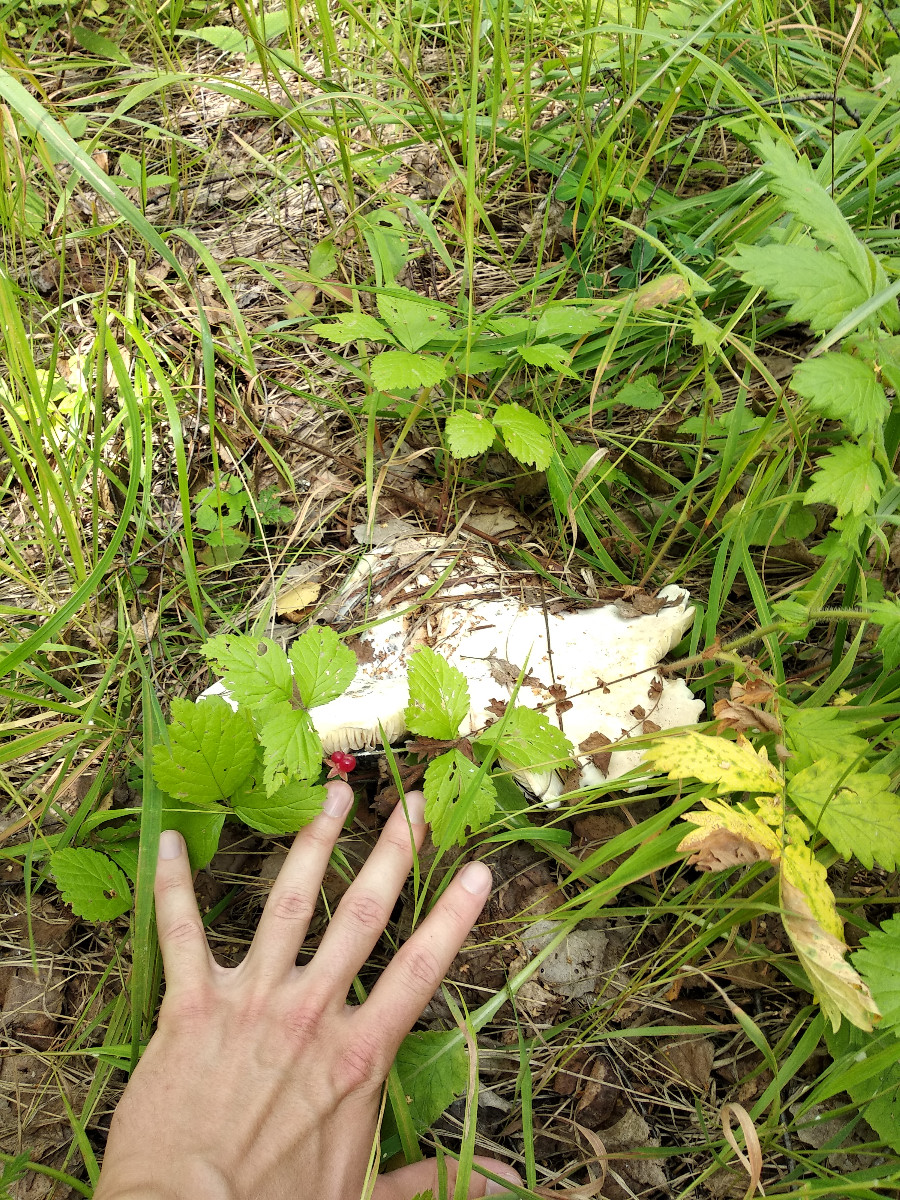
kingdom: Fungi
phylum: Basidiomycota
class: Agaricomycetes
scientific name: Agaricomycetes
